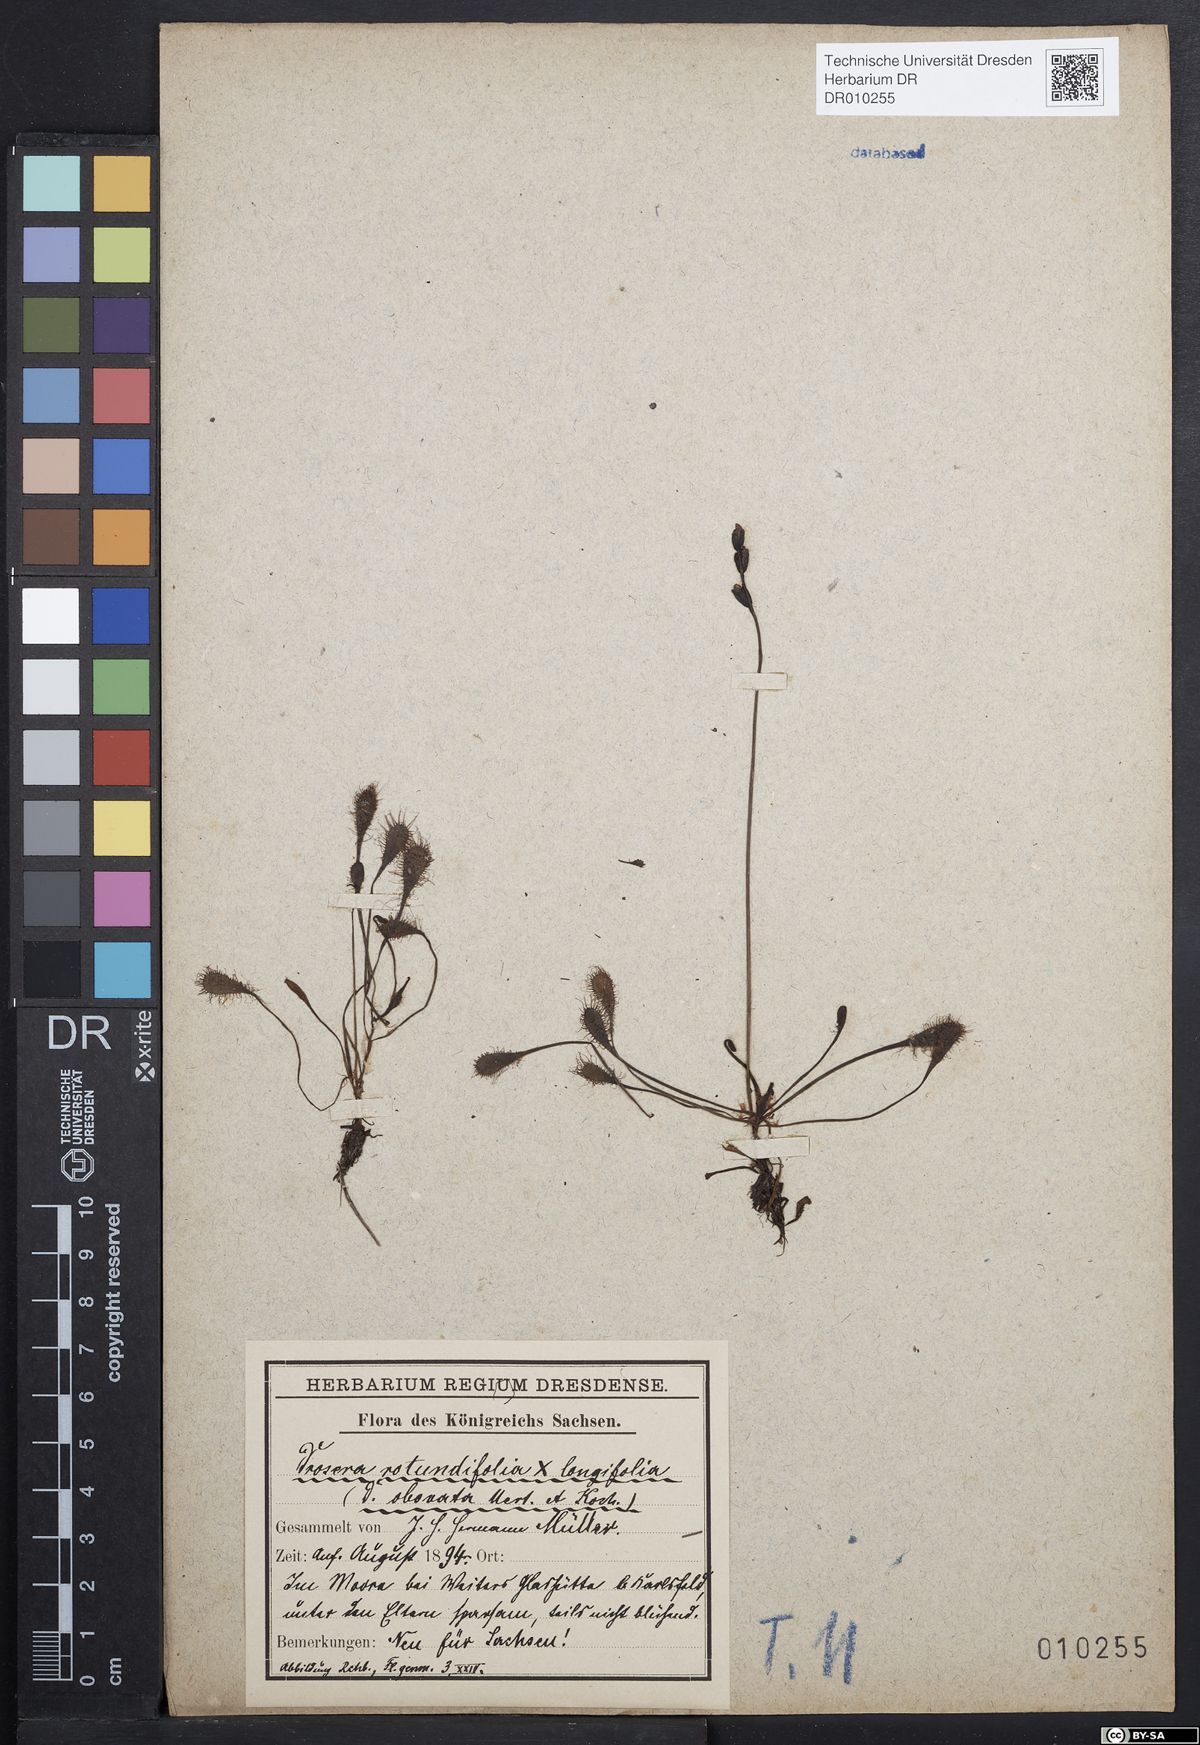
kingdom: Plantae
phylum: Tracheophyta
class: Magnoliopsida
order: Caryophyllales
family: Droseraceae
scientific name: Droseraceae
